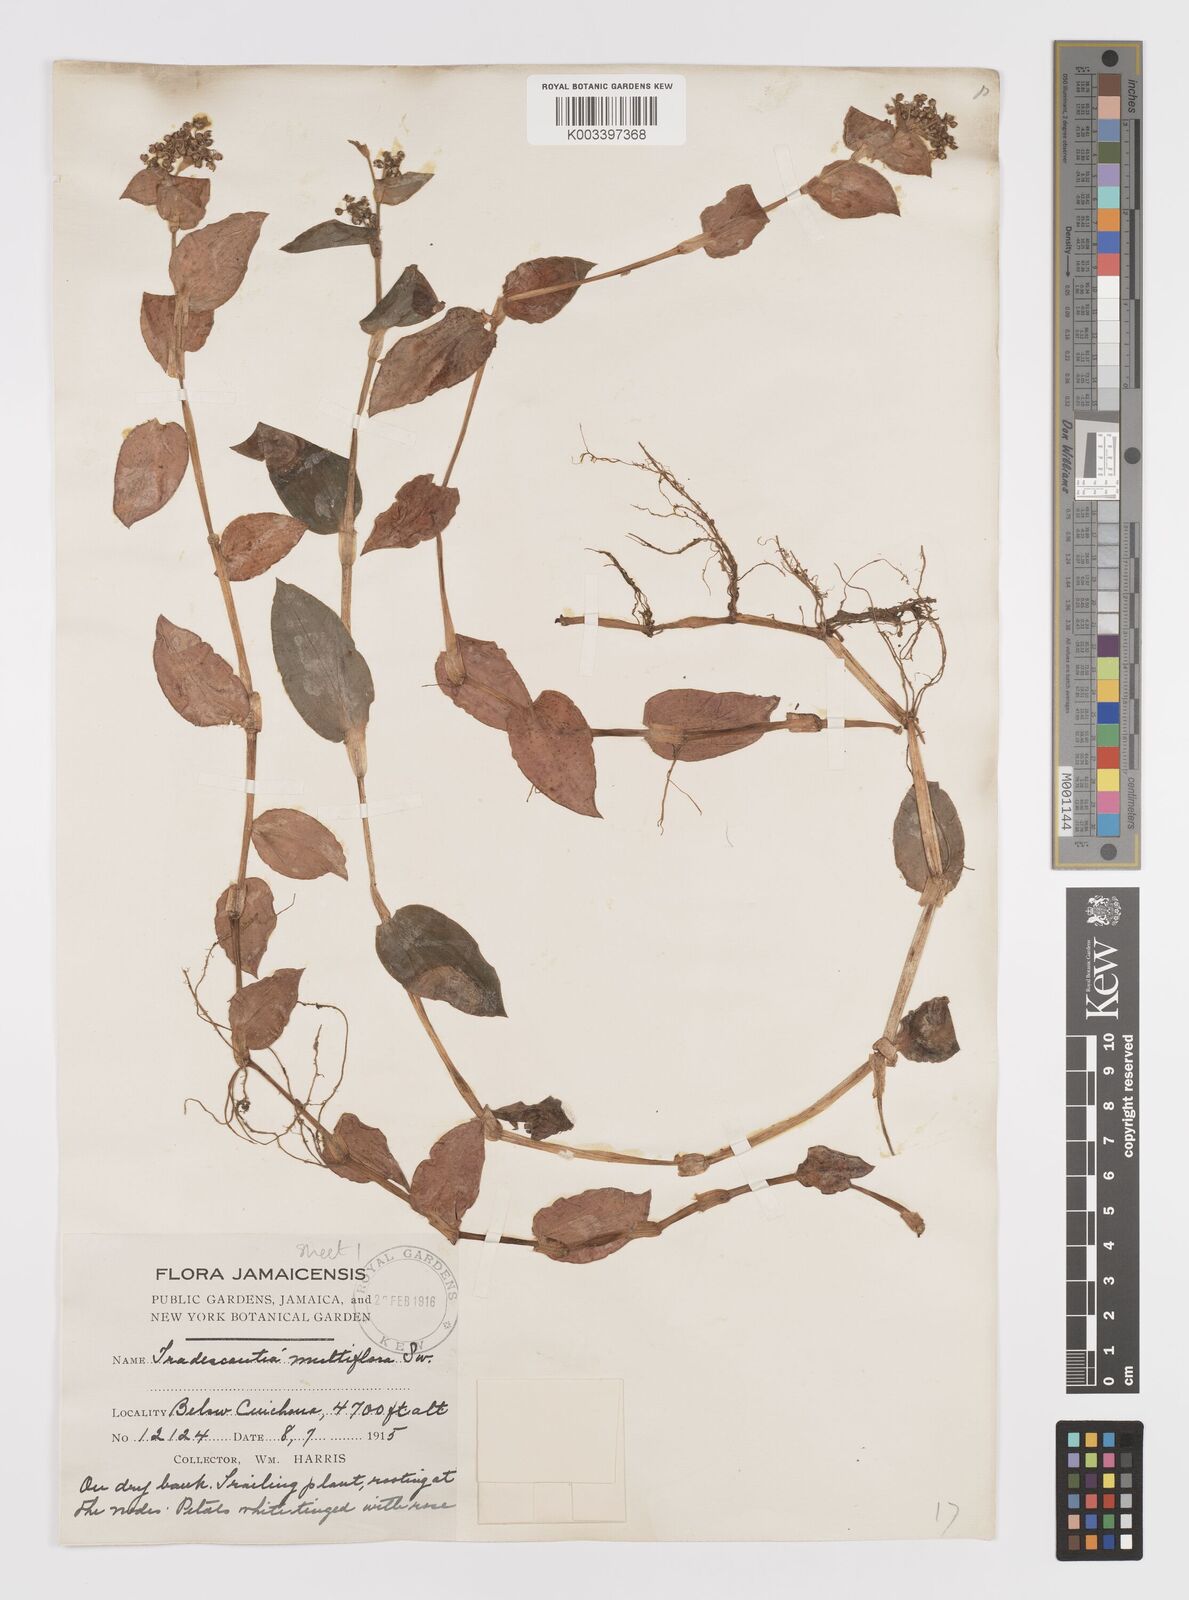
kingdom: Plantae
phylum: Tracheophyta
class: Liliopsida
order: Commelinales
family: Commelinaceae
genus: Callisia
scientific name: Callisia procumbens
